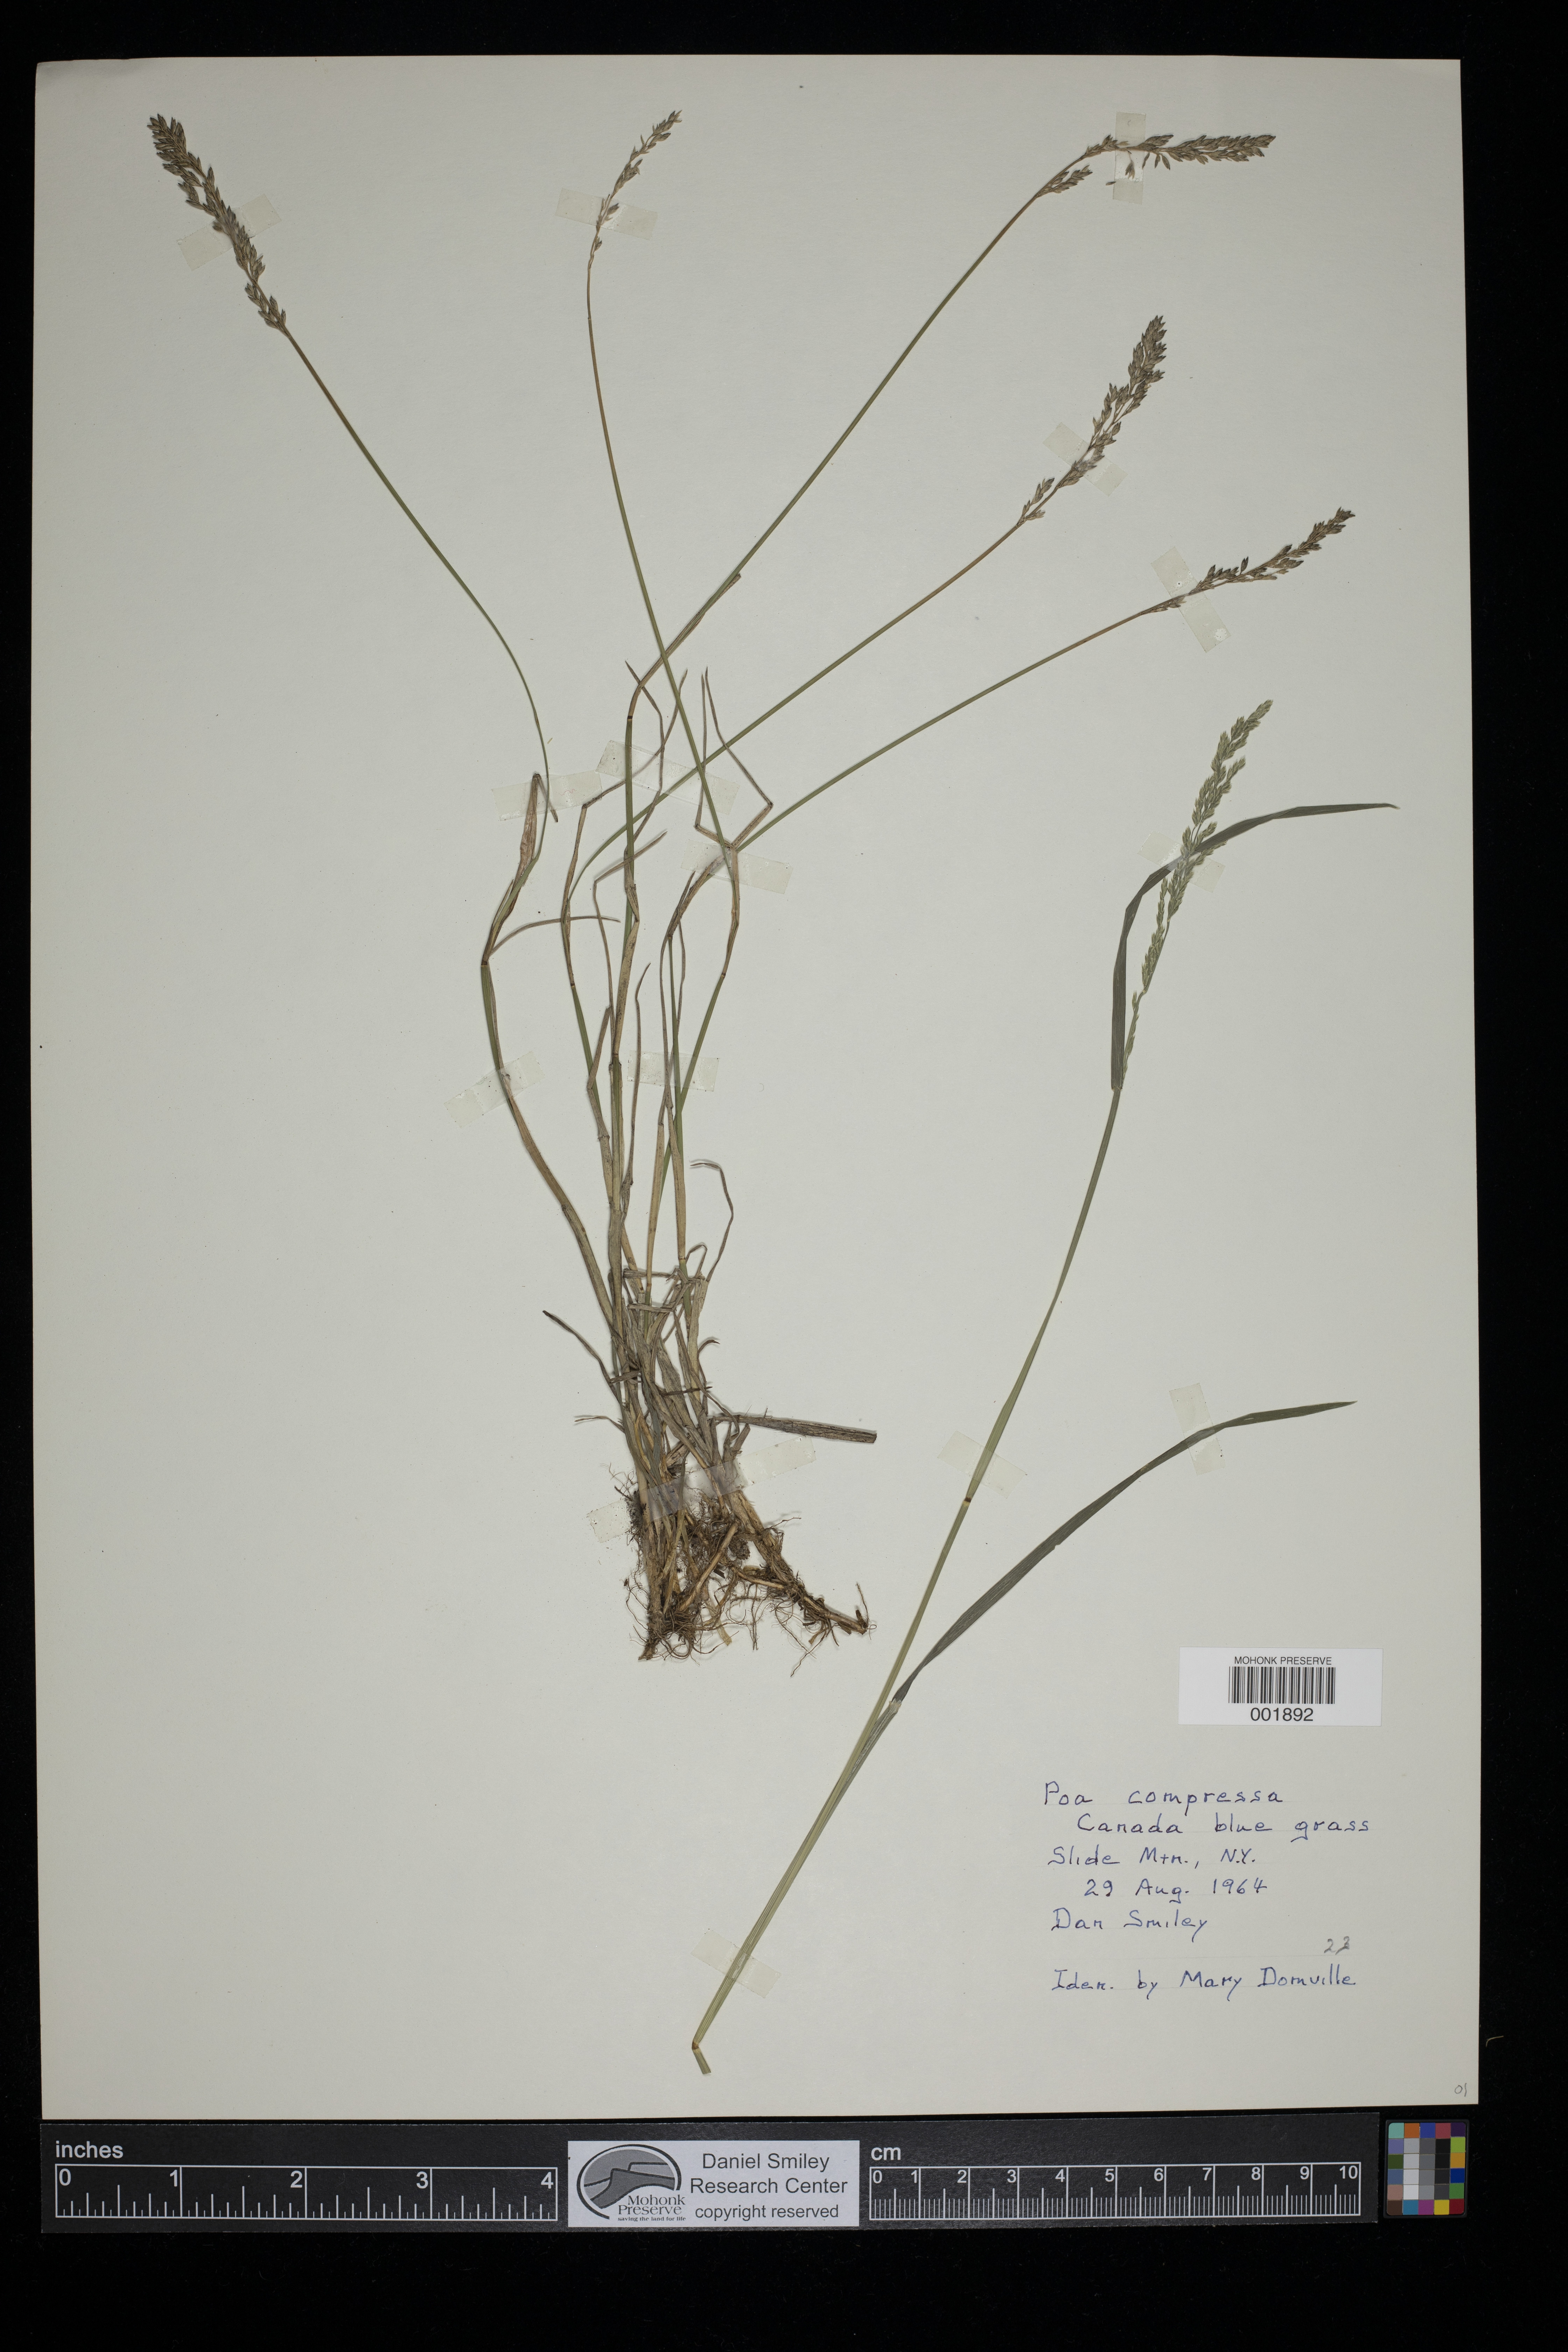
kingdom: Plantae
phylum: Tracheophyta
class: Liliopsida
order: Poales
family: Poaceae
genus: Poa
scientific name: Poa compressa
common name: Canada bluegrass
